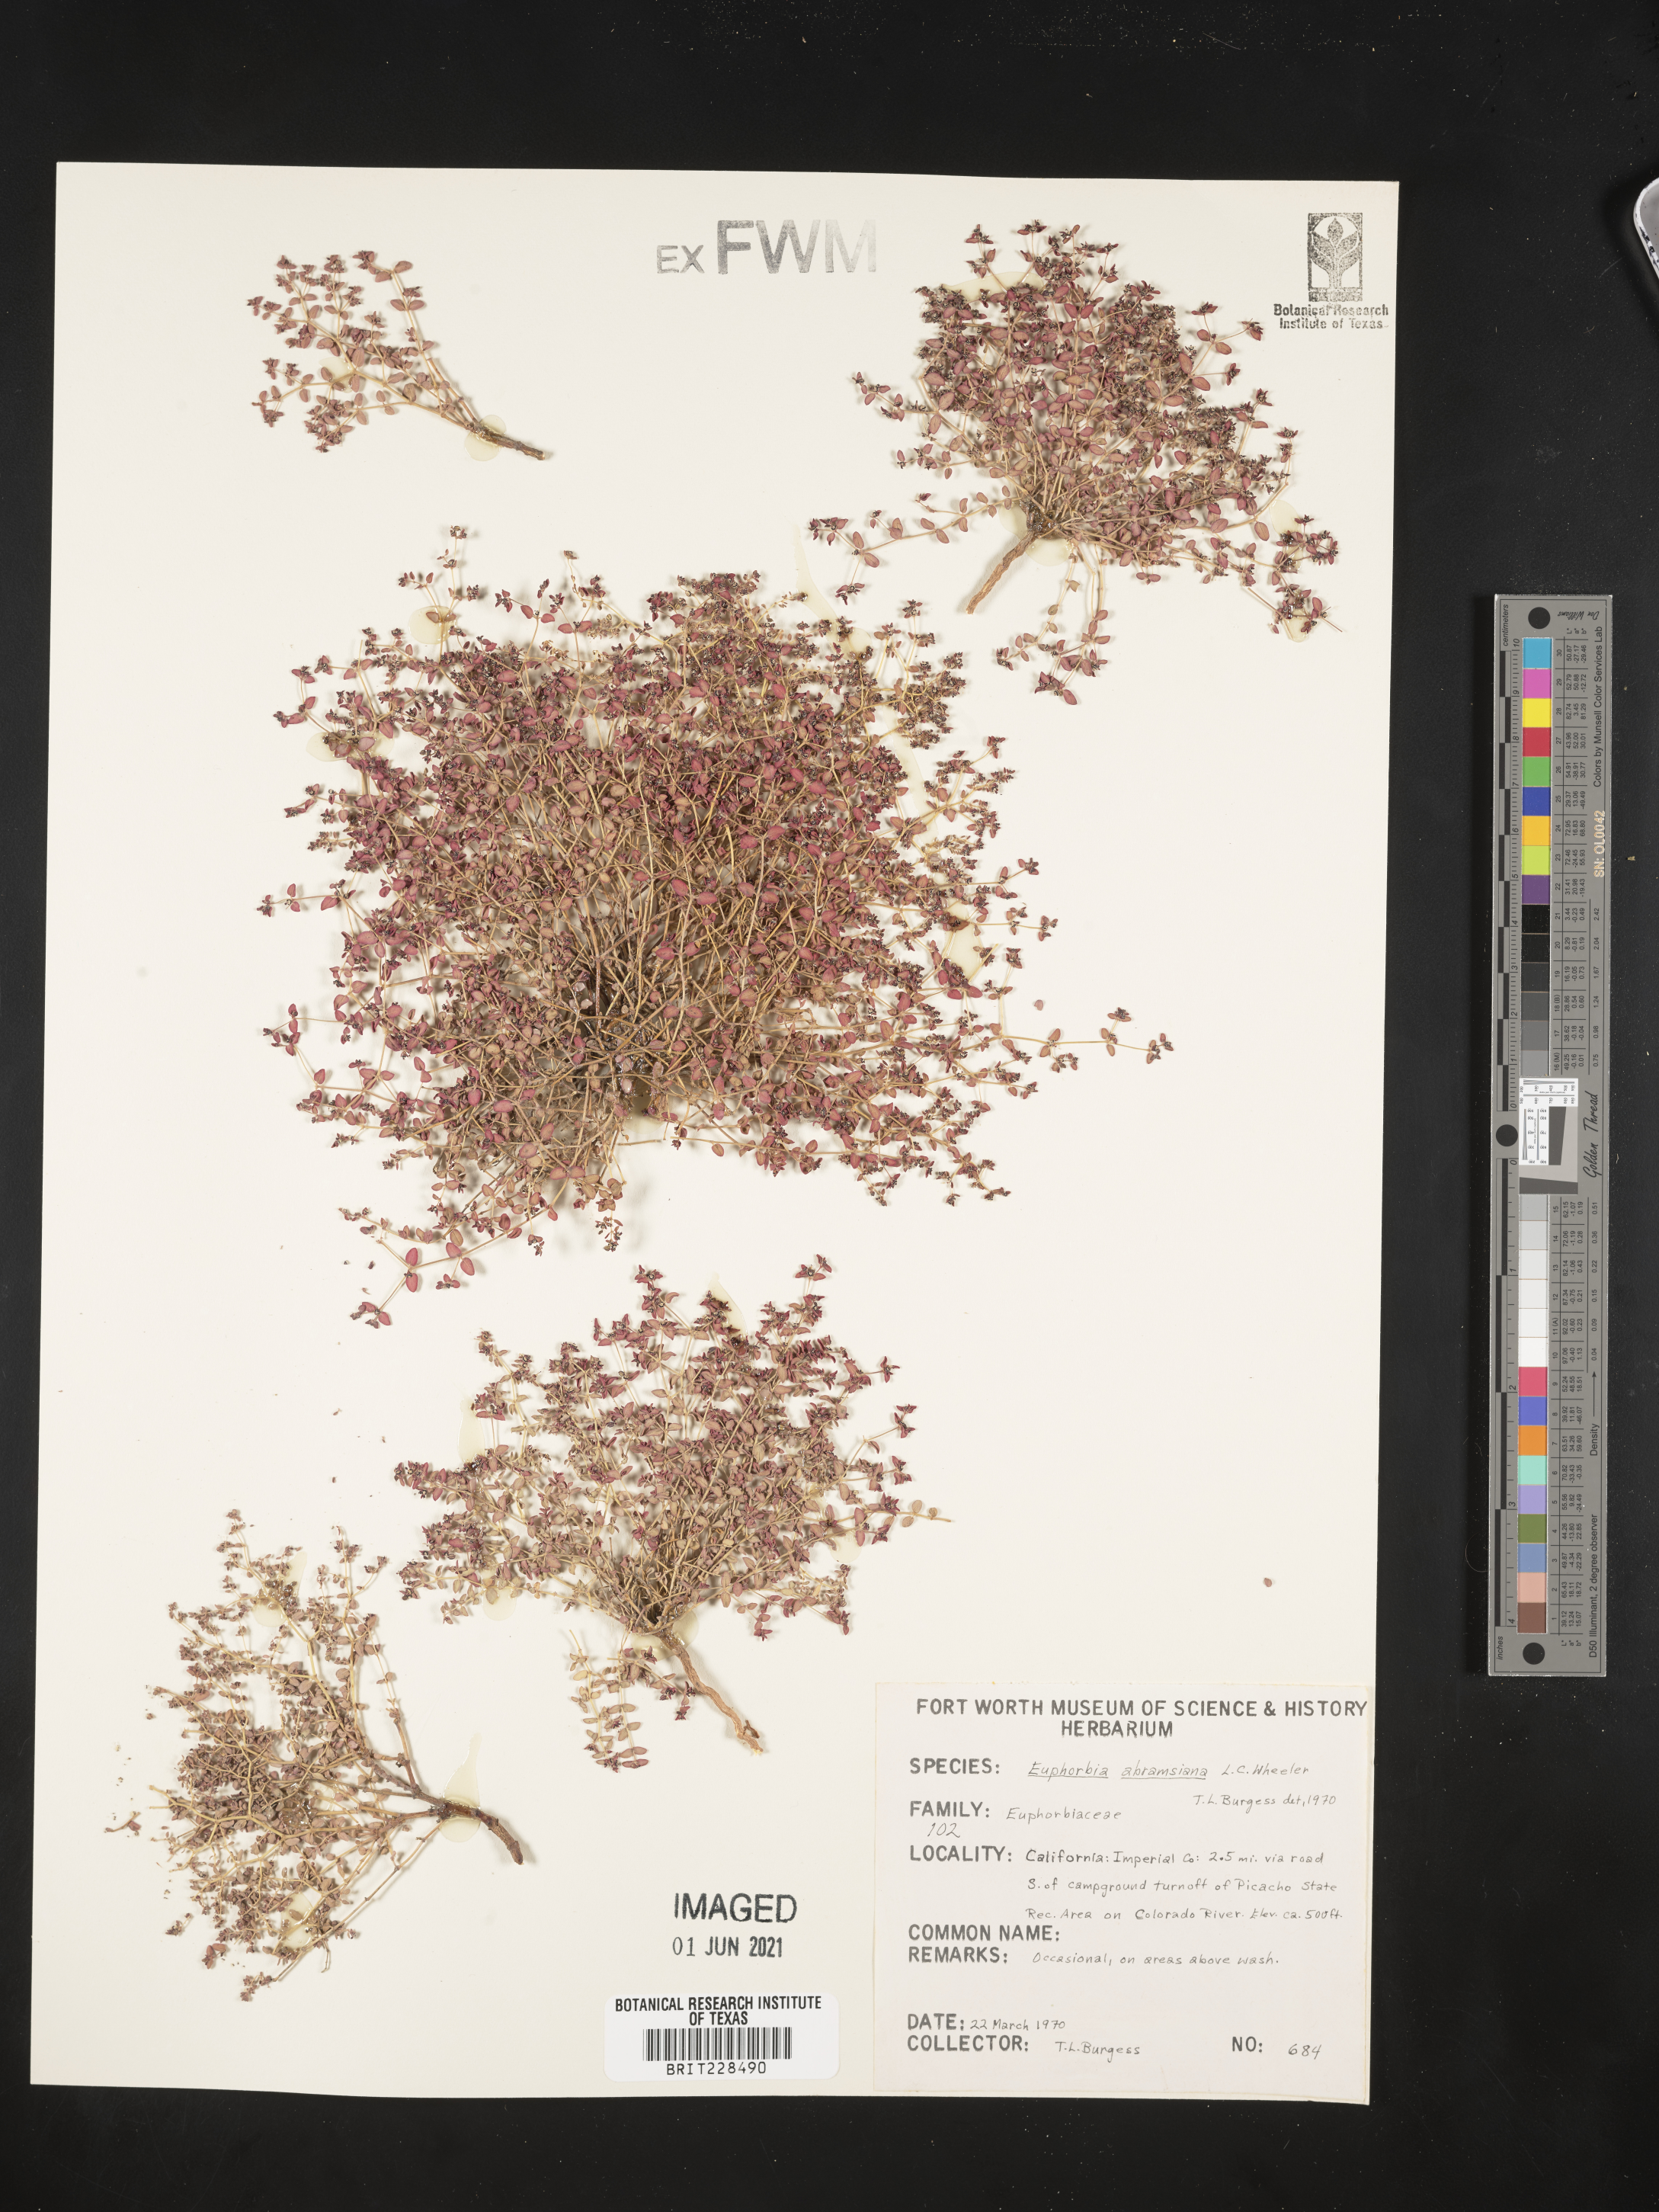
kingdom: Plantae
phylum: Tracheophyta
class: Magnoliopsida
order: Malpighiales
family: Euphorbiaceae
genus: Euphorbia
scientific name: Euphorbia abramsiana
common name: Abram's spurge
